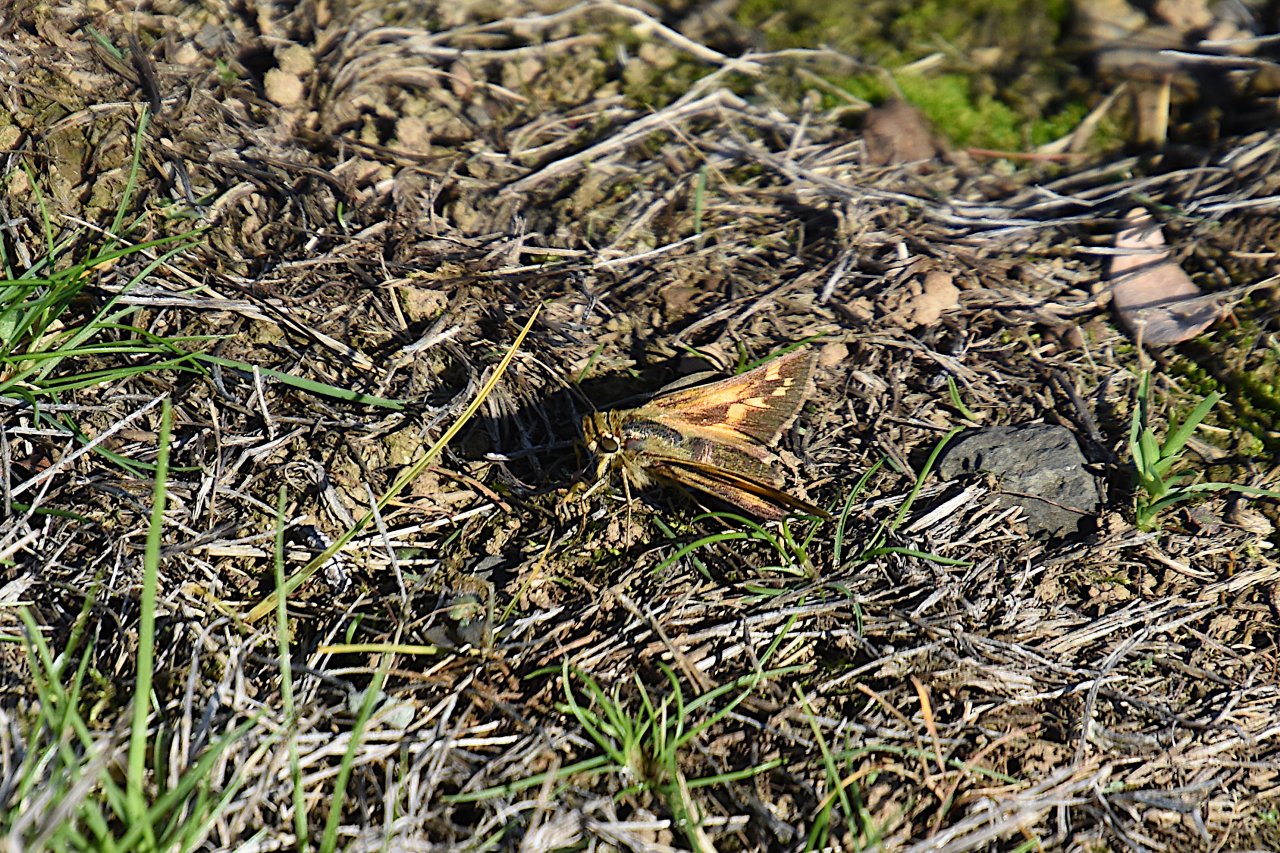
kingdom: Animalia
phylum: Arthropoda
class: Insecta
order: Lepidoptera
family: Hesperiidae
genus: Ochlodes
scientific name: Ochlodes sylvanoides
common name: Woodland Skipper
